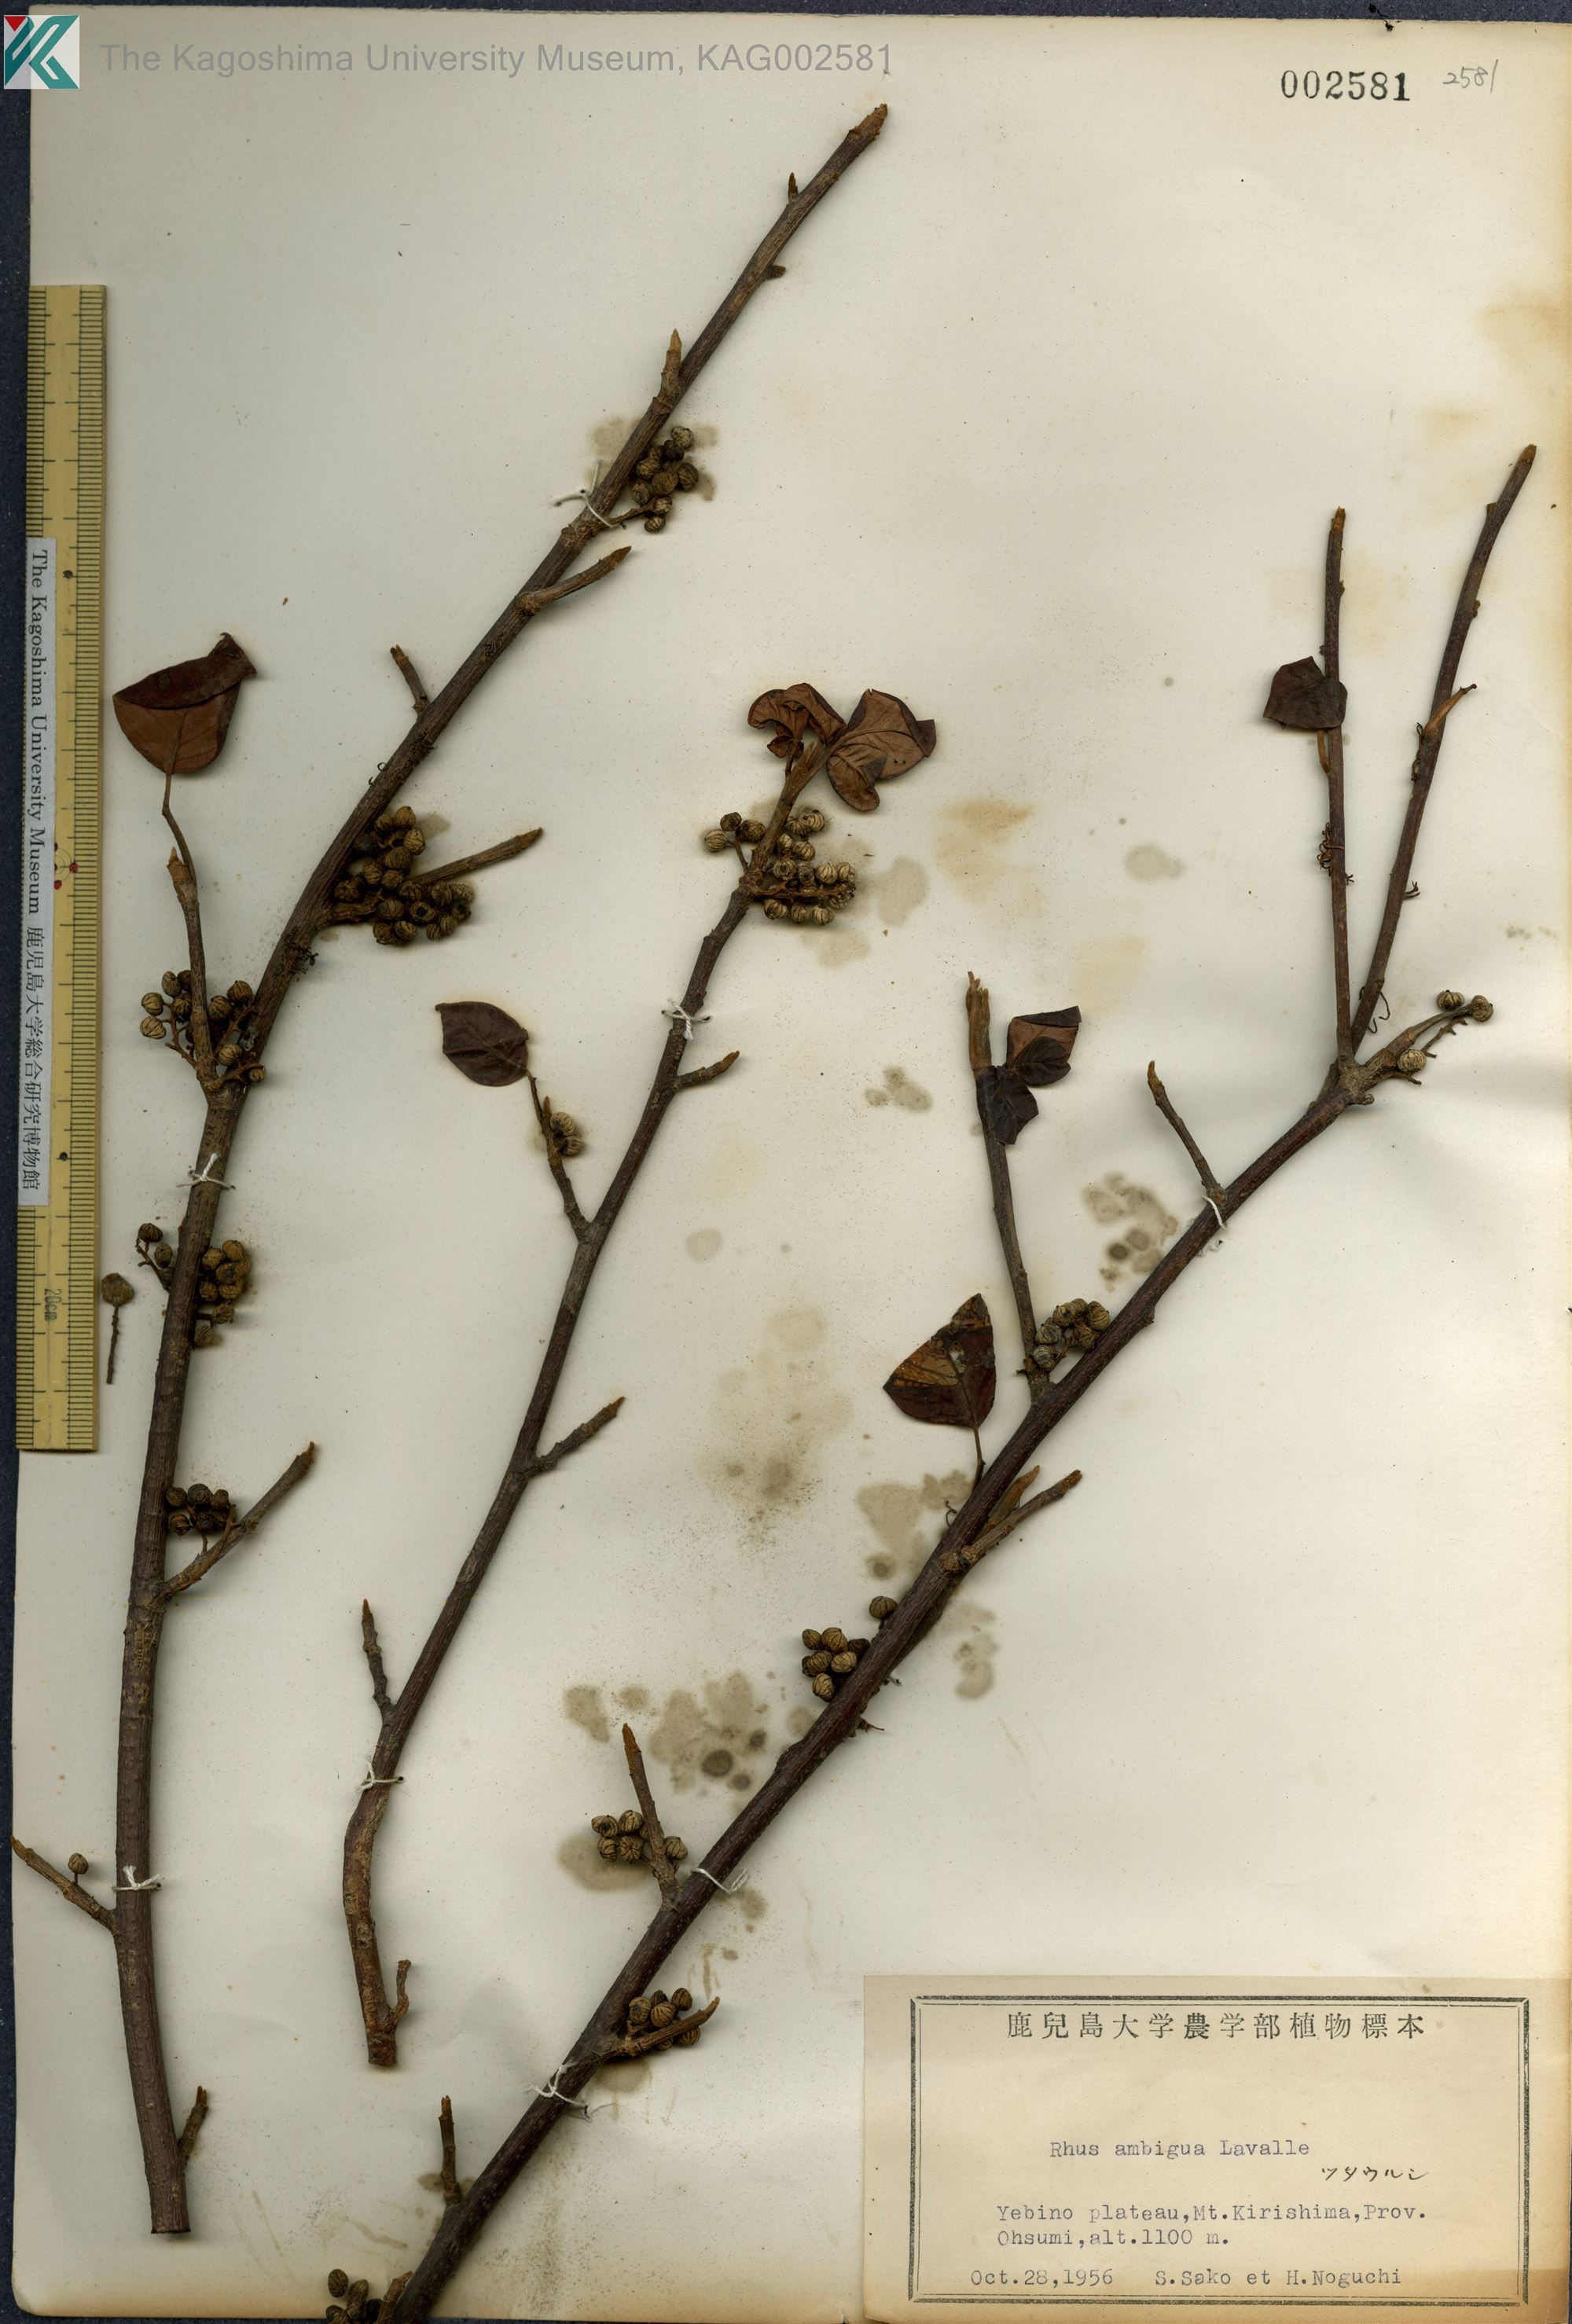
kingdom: Plantae
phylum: Tracheophyta
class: Magnoliopsida
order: Sapindales
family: Anacardiaceae
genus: Toxicodendron
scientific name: Toxicodendron orientale
